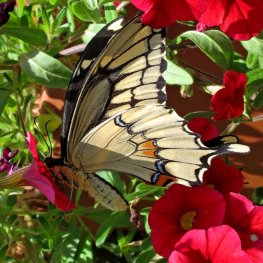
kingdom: Animalia
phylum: Arthropoda
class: Insecta
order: Lepidoptera
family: Papilionidae
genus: Papilio
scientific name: Papilio cresphontes
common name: Eastern Giant Swallowtail
